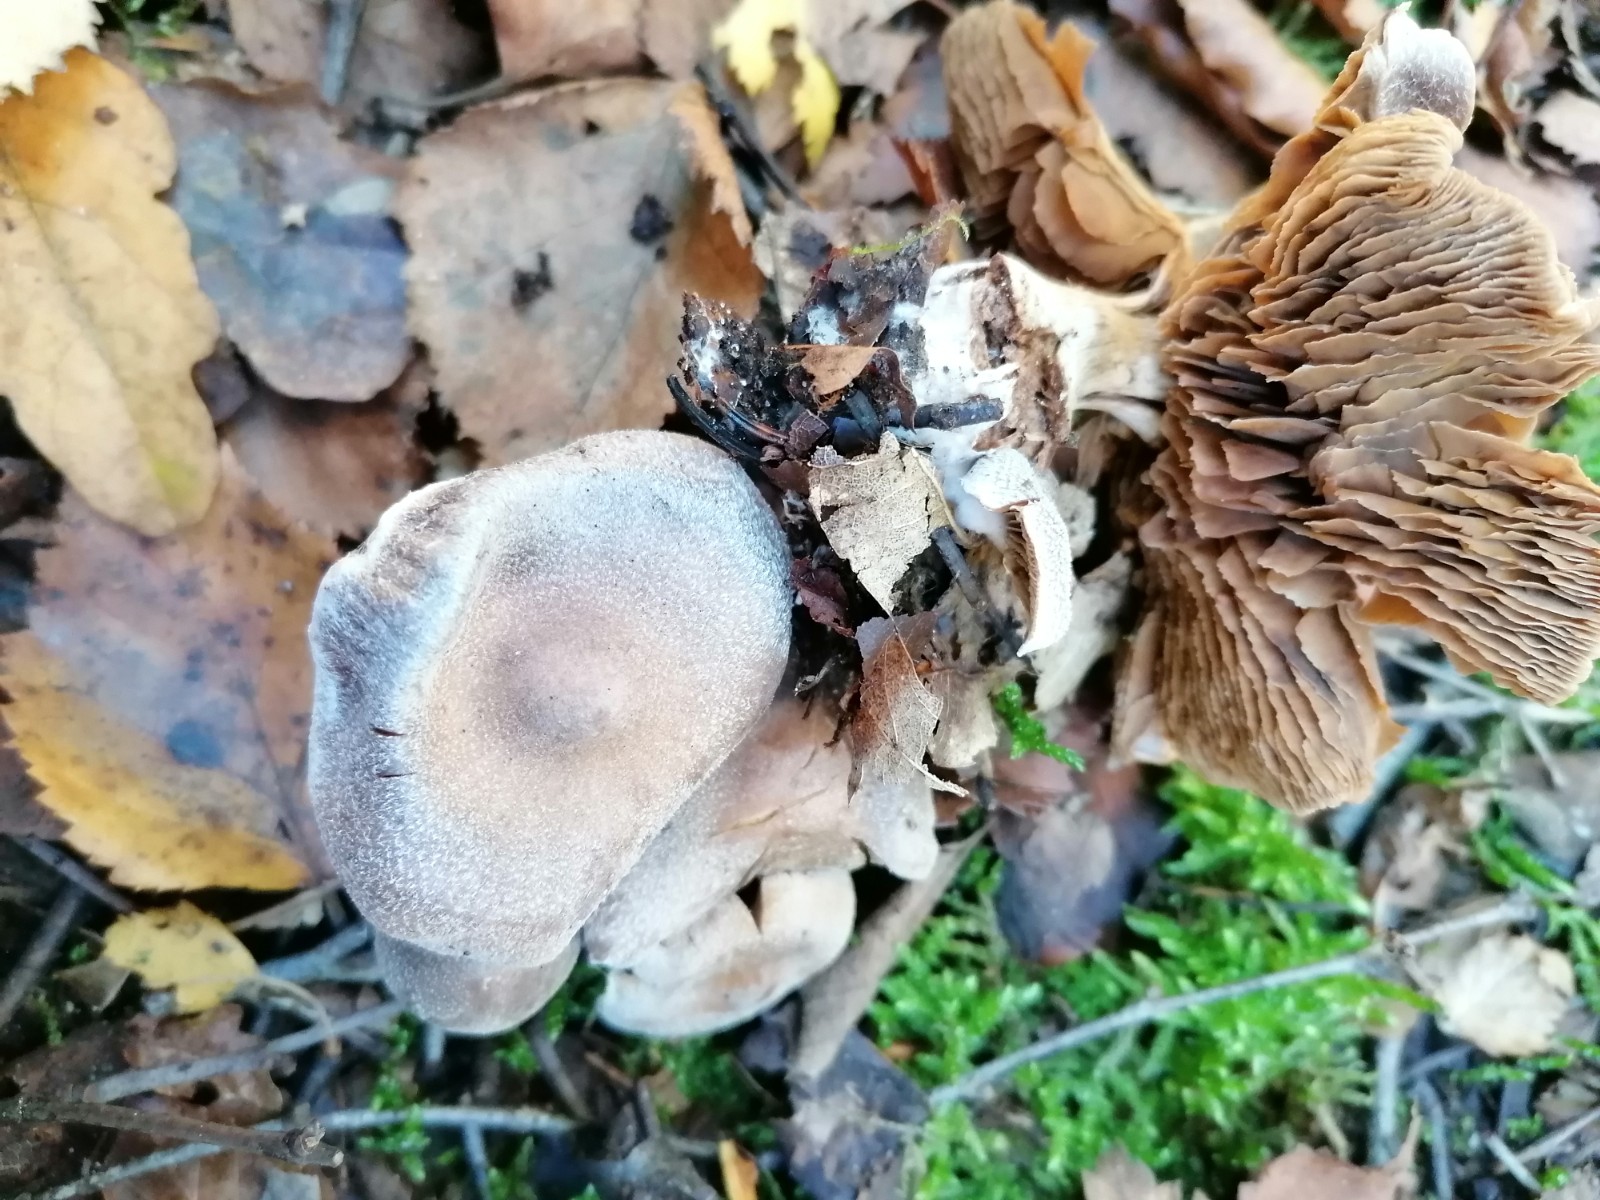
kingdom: Fungi
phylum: Basidiomycota
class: Agaricomycetes
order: Agaricales
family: Cortinariaceae
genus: Cortinarius
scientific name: Cortinarius hemitrichus
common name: hvidfnugget slørhat
